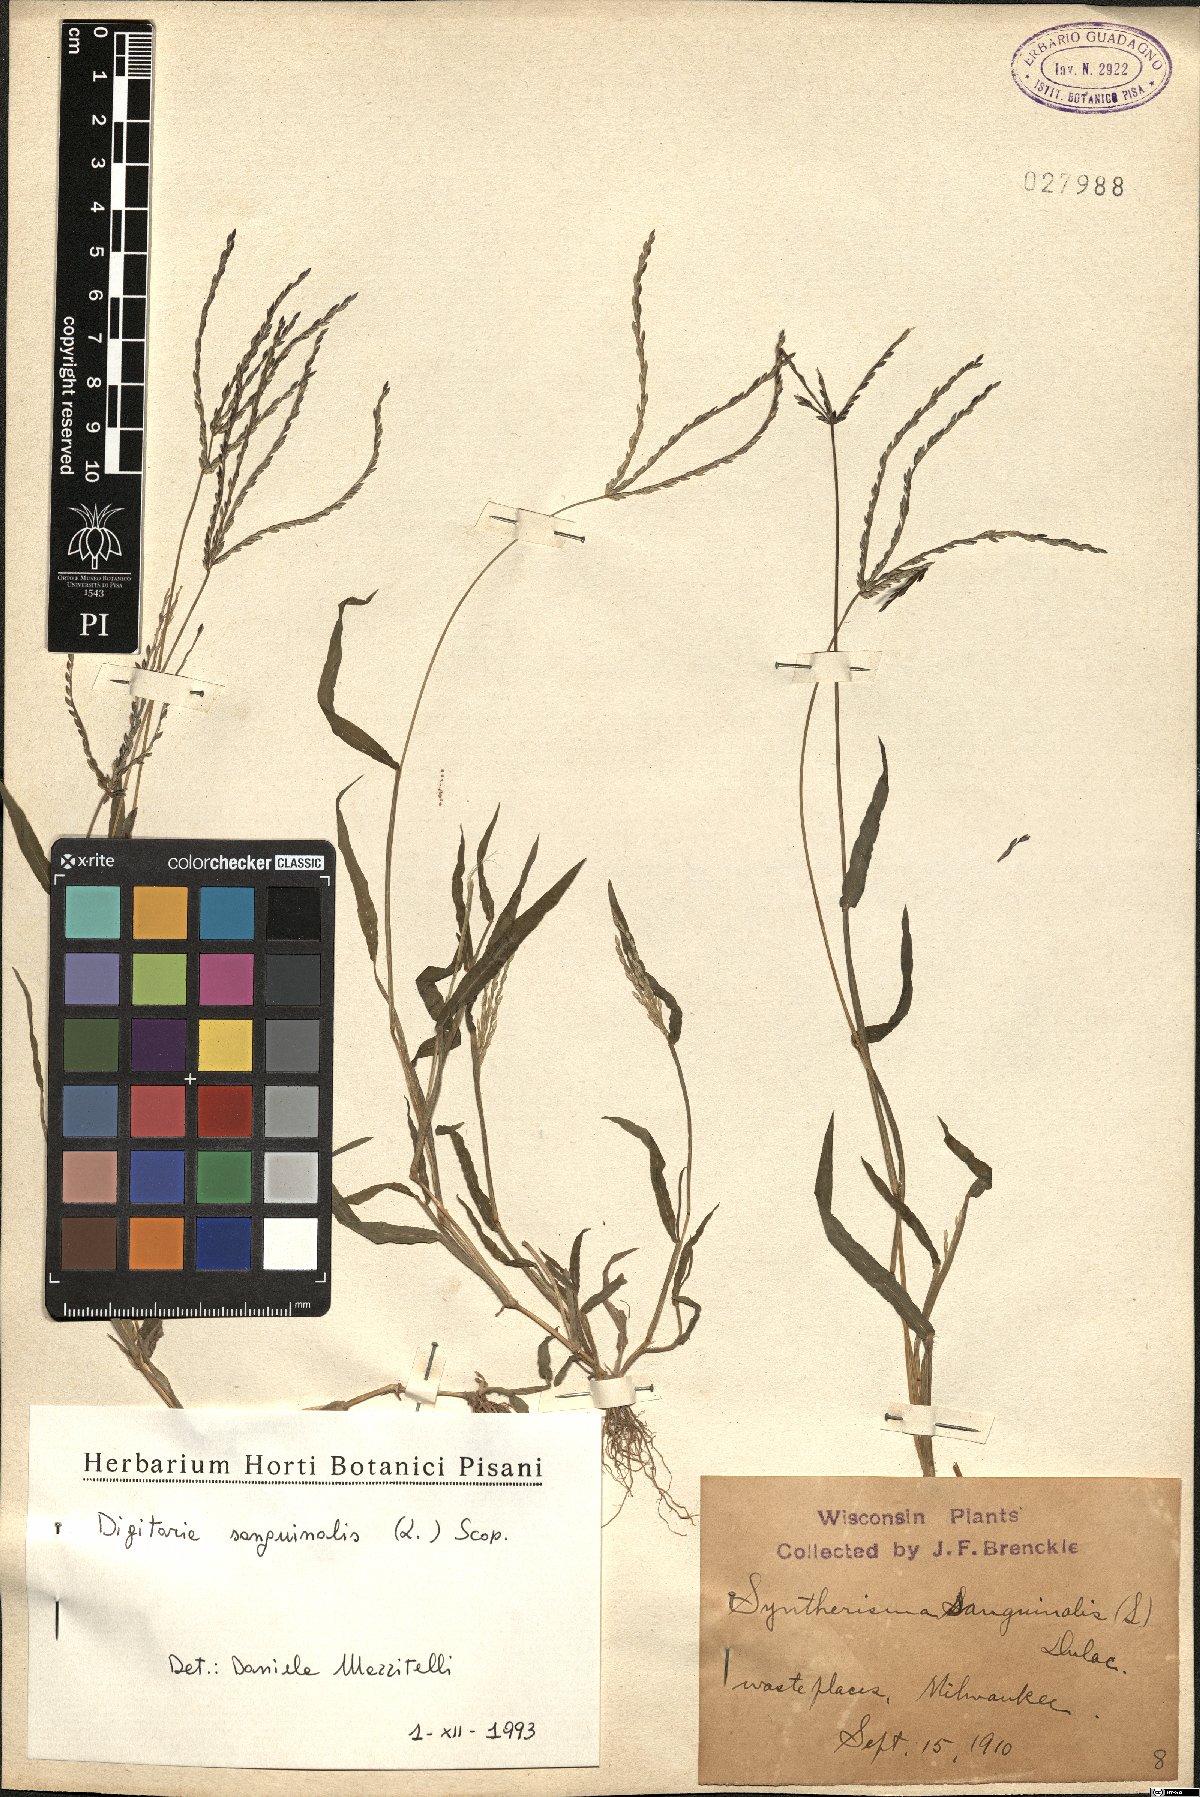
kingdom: Plantae
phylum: Tracheophyta
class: Liliopsida
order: Poales
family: Poaceae
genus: Digitaria
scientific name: Digitaria sanguinalis
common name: Hairy crabgrass
